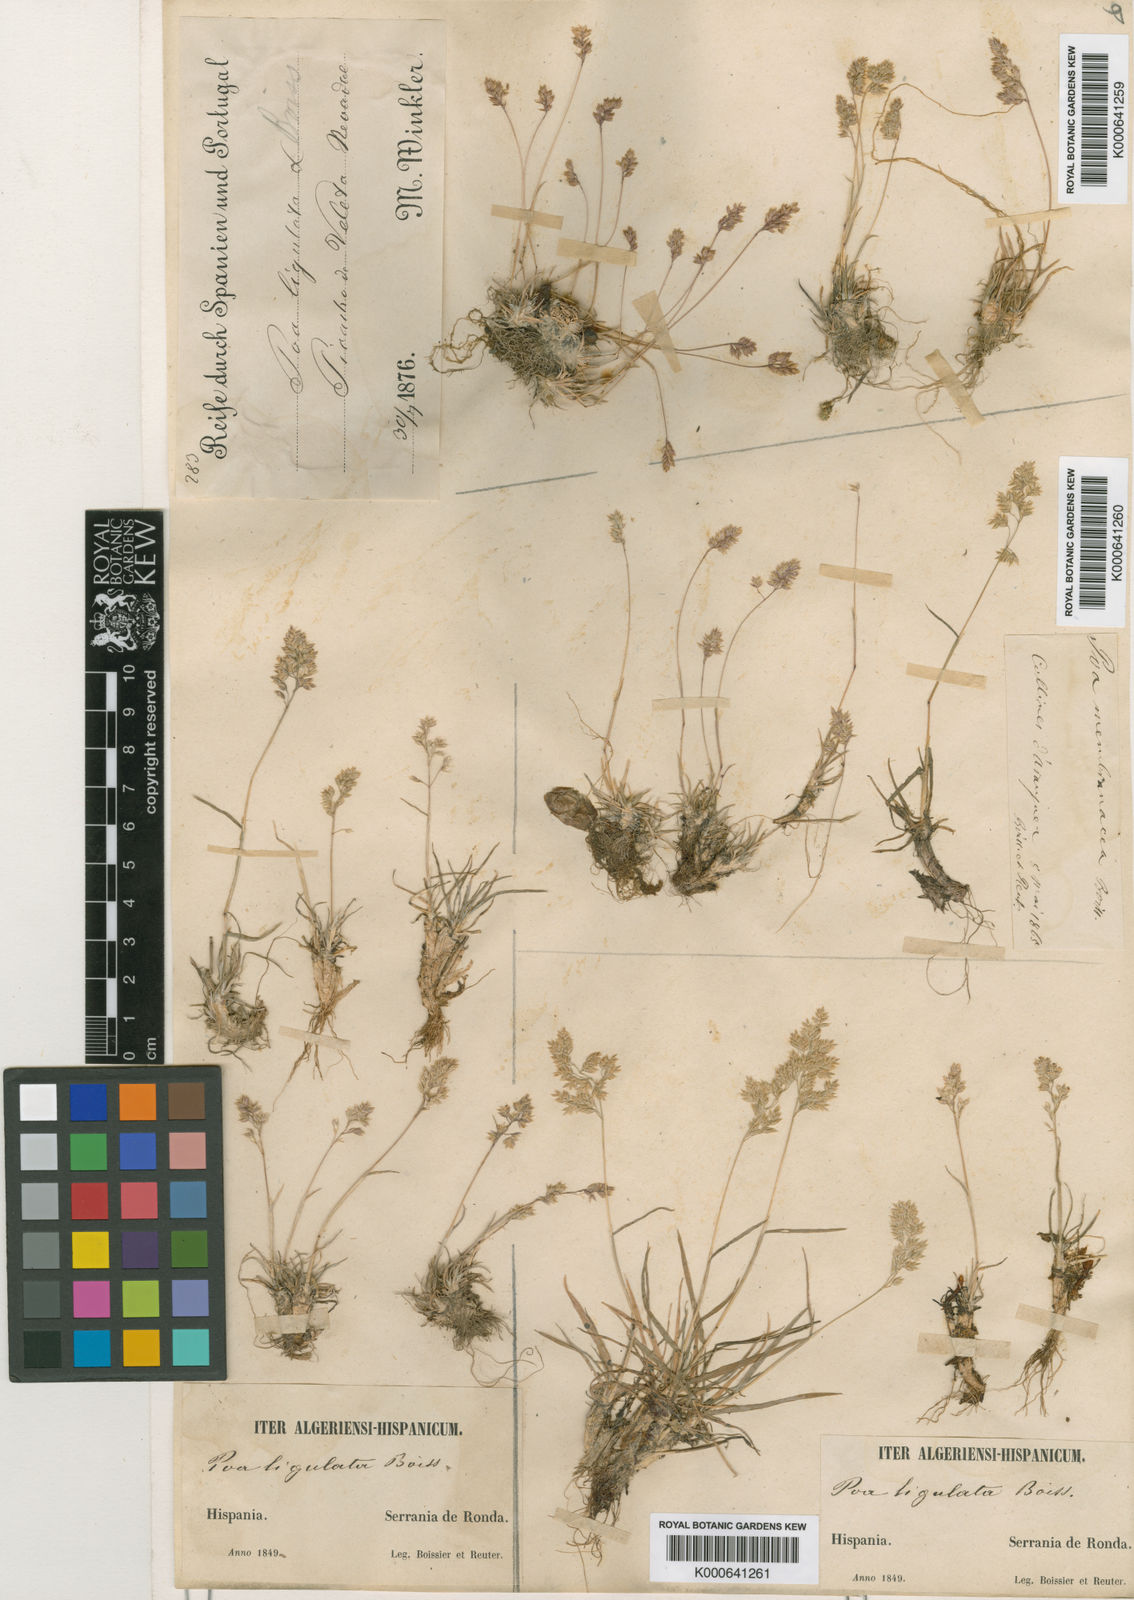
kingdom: Plantae
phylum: Tracheophyta
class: Liliopsida
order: Poales
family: Poaceae
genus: Poa
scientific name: Poa ligulata
